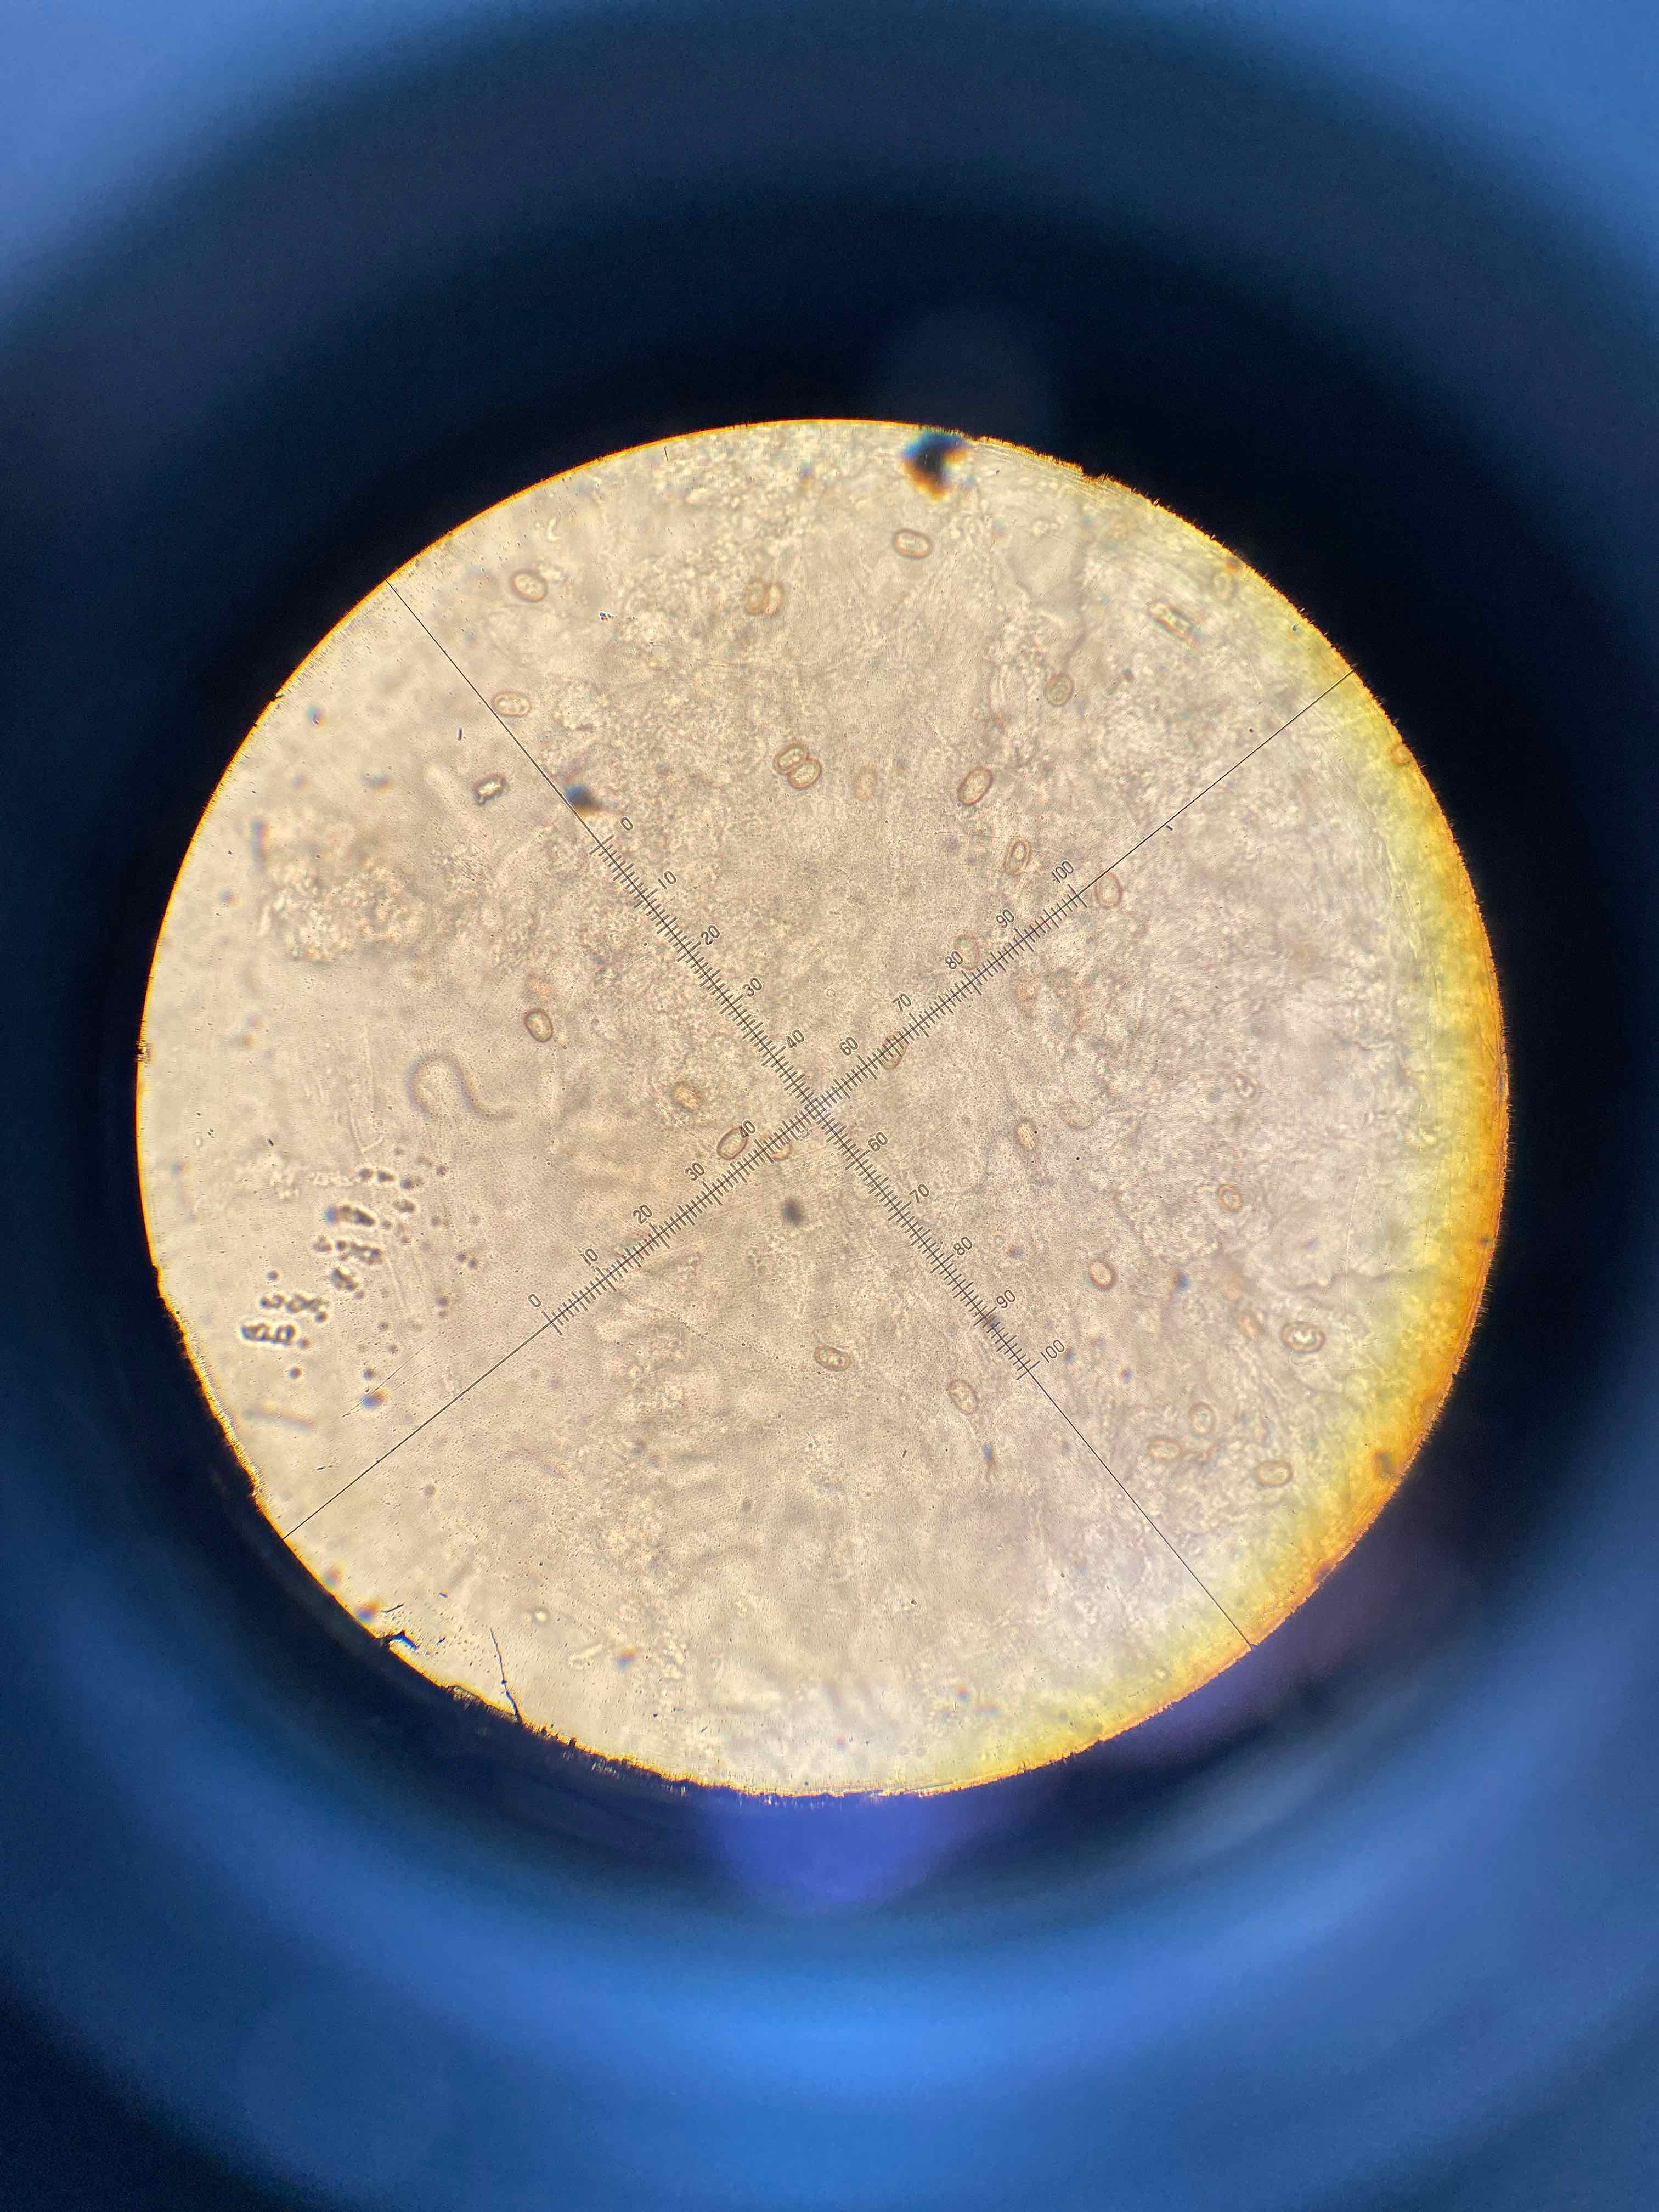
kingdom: Fungi
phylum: Basidiomycota
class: Agaricomycetes
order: Agaricales
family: Strophariaceae
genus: Pholiota
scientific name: Pholiota squarrosoides
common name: vellugtende skælhat
